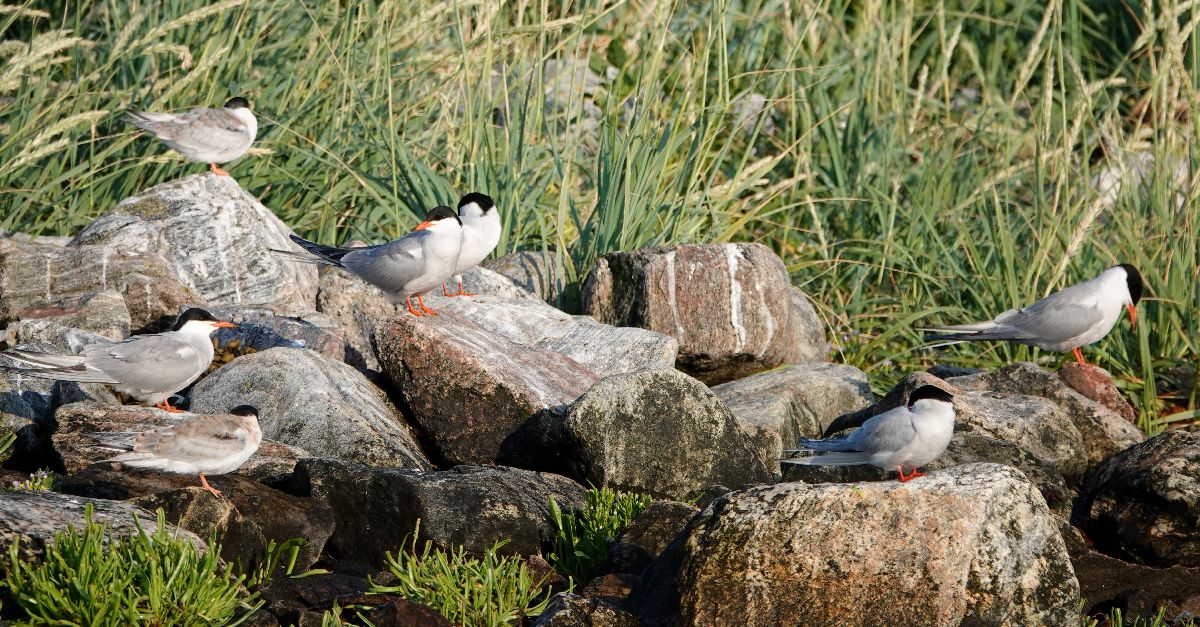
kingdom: Animalia
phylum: Chordata
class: Aves
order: Charadriiformes
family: Laridae
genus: Sterna
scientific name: Sterna hirundo
